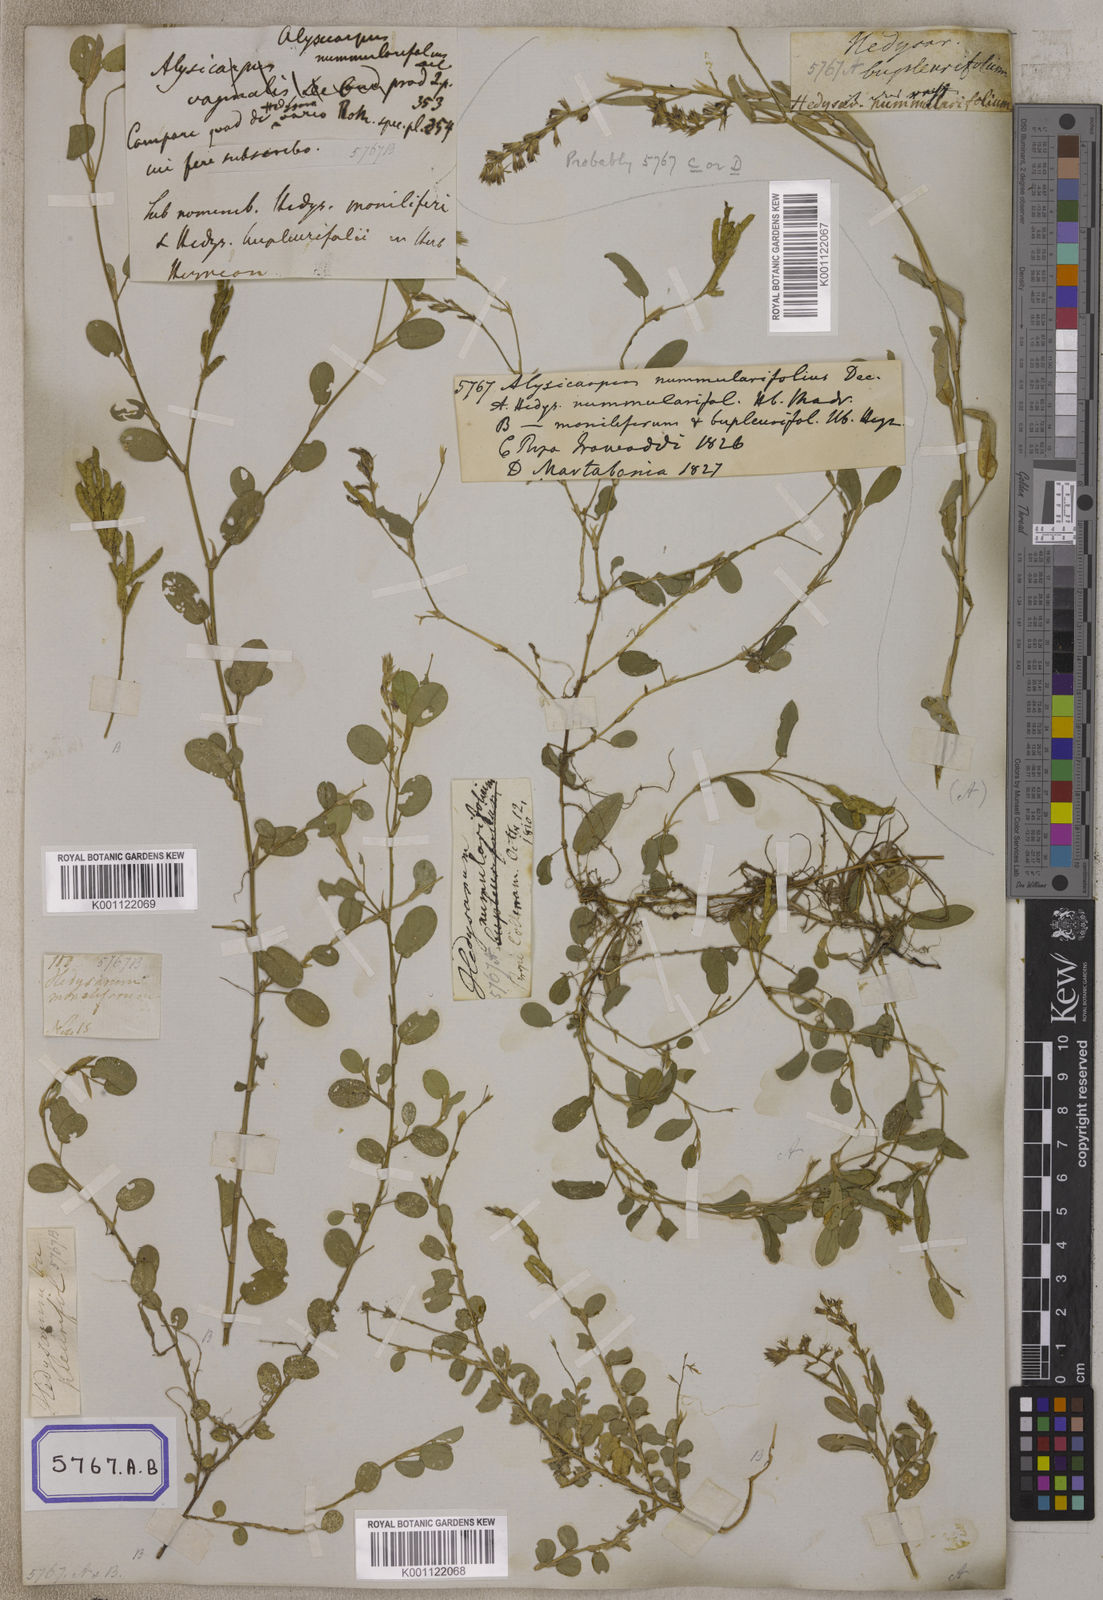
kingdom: Plantae
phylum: Tracheophyta
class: Magnoliopsida
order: Fabales
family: Fabaceae
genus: Alysicarpus
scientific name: Alysicarpus vaginalis
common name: White moneywort
